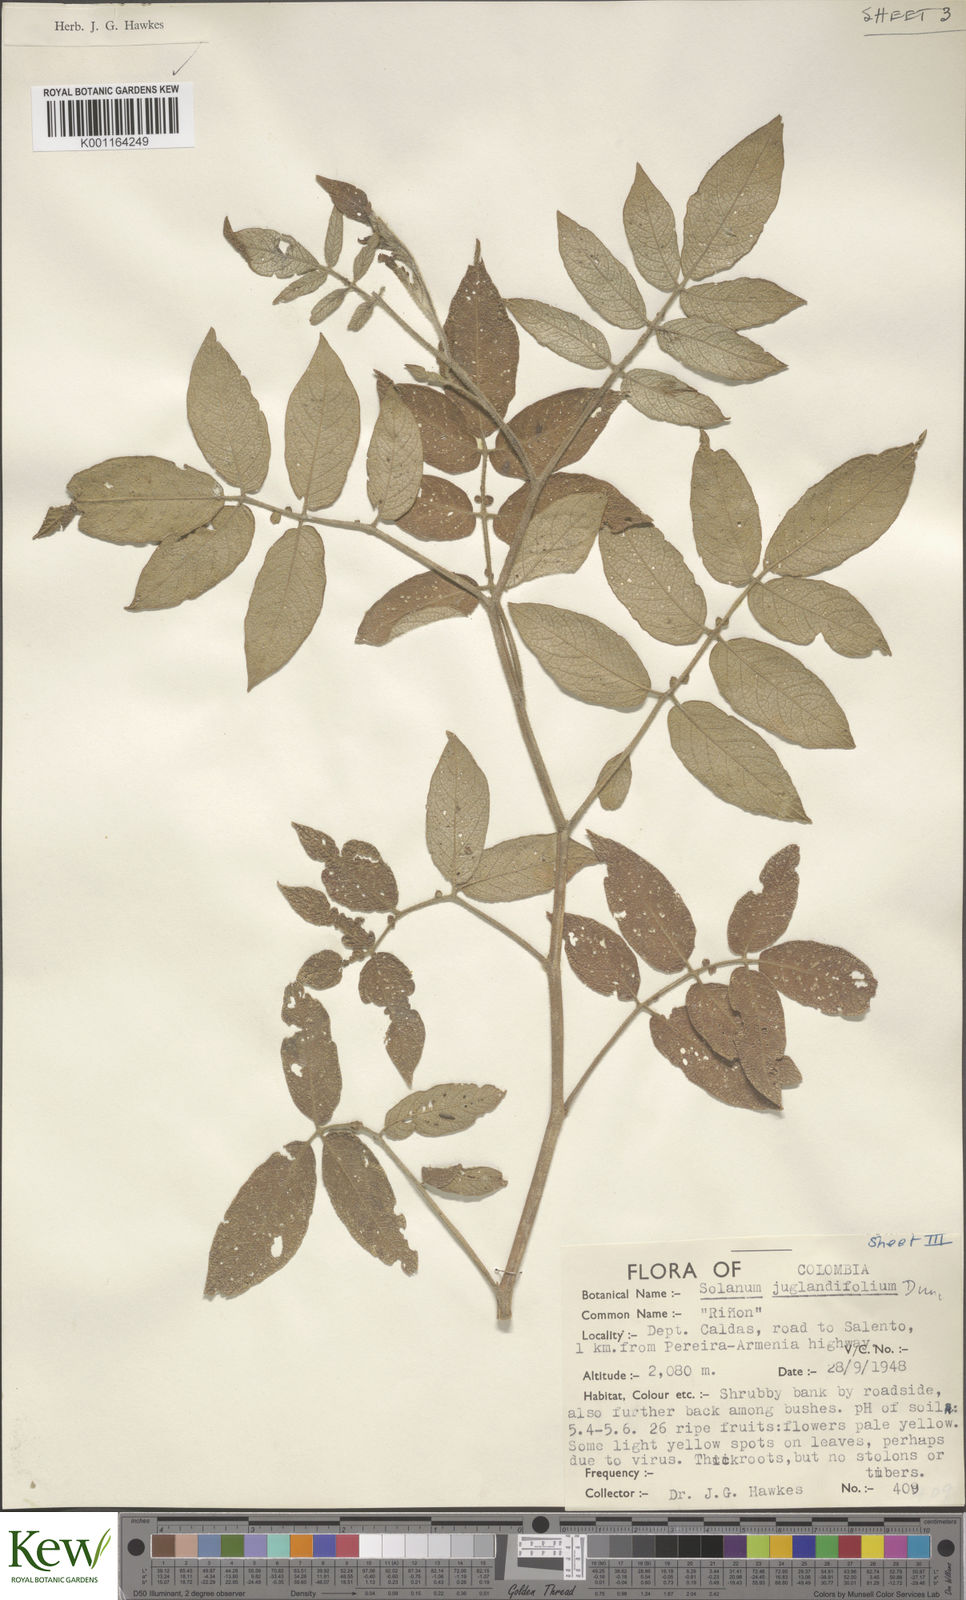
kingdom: Plantae
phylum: Tracheophyta
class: Magnoliopsida
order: Solanales
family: Solanaceae
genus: Solanum
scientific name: Solanum juglandifolium
